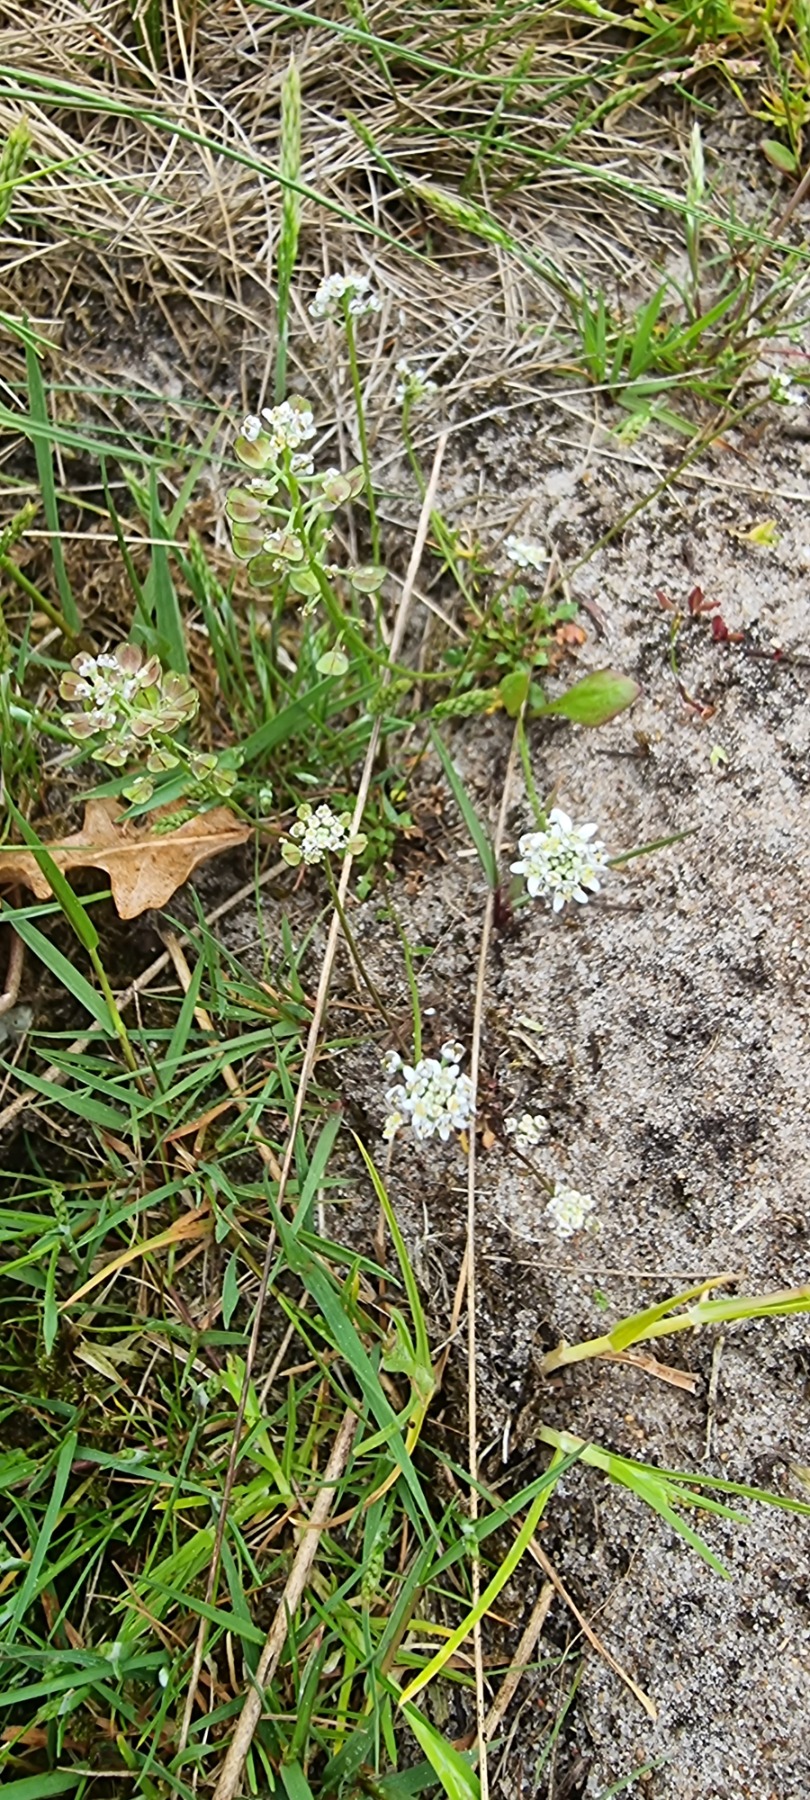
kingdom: Plantae
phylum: Tracheophyta
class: Magnoliopsida
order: Brassicales
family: Brassicaceae
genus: Teesdalia
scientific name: Teesdalia nudicaulis
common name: Flipkrave
